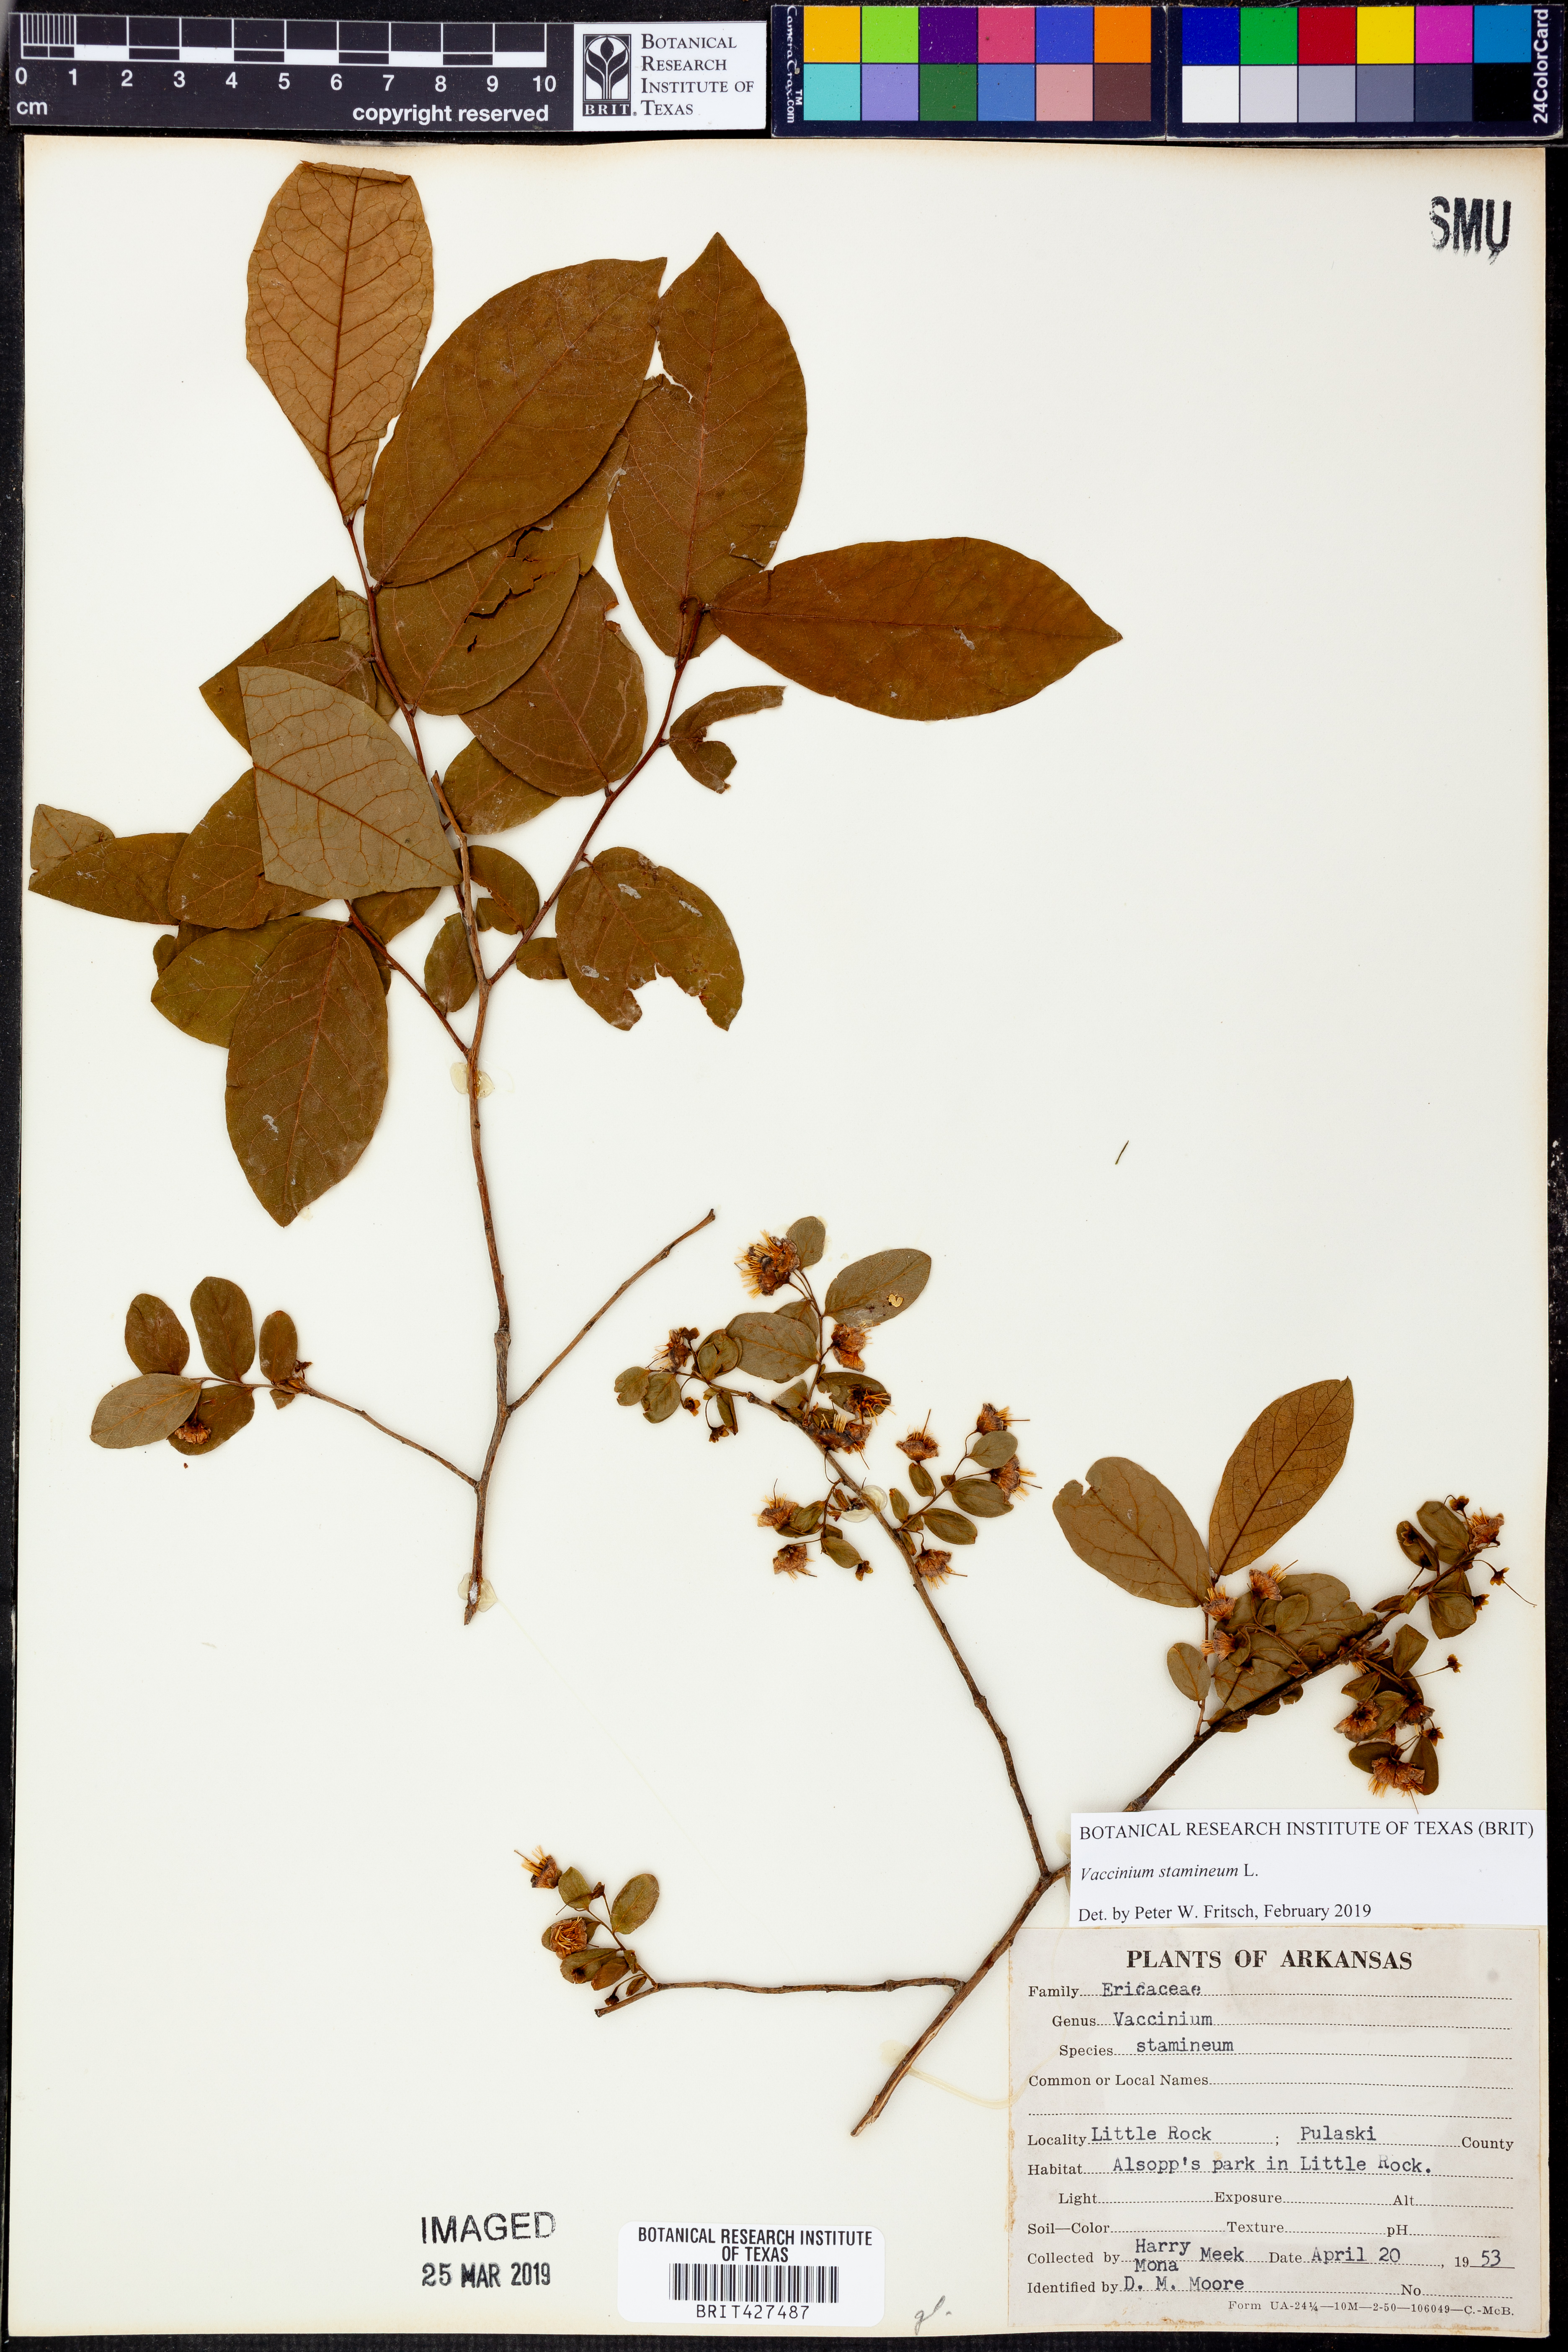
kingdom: Plantae
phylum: Tracheophyta
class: Magnoliopsida
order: Ericales
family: Ericaceae
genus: Vaccinium
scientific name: Vaccinium stamineum
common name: Deerberry
